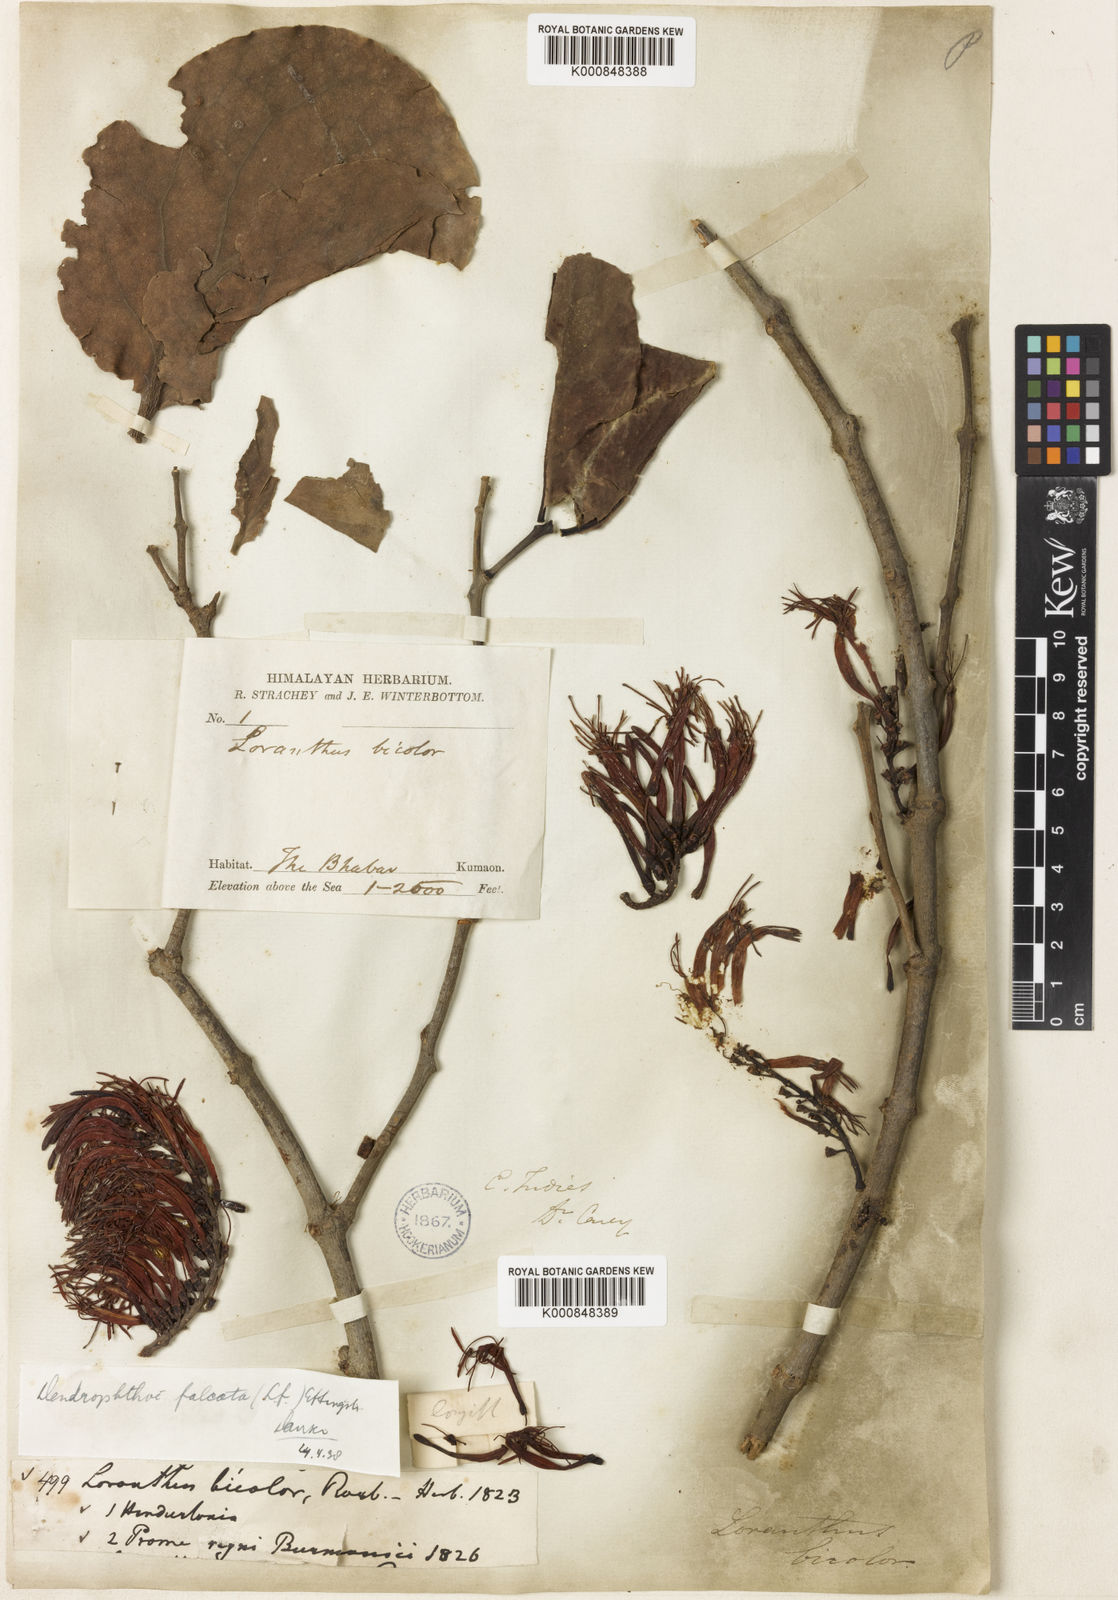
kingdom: Plantae
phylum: Tracheophyta
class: Magnoliopsida
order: Santalales
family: Loranthaceae
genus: Dendrophthoe
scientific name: Dendrophthoe
